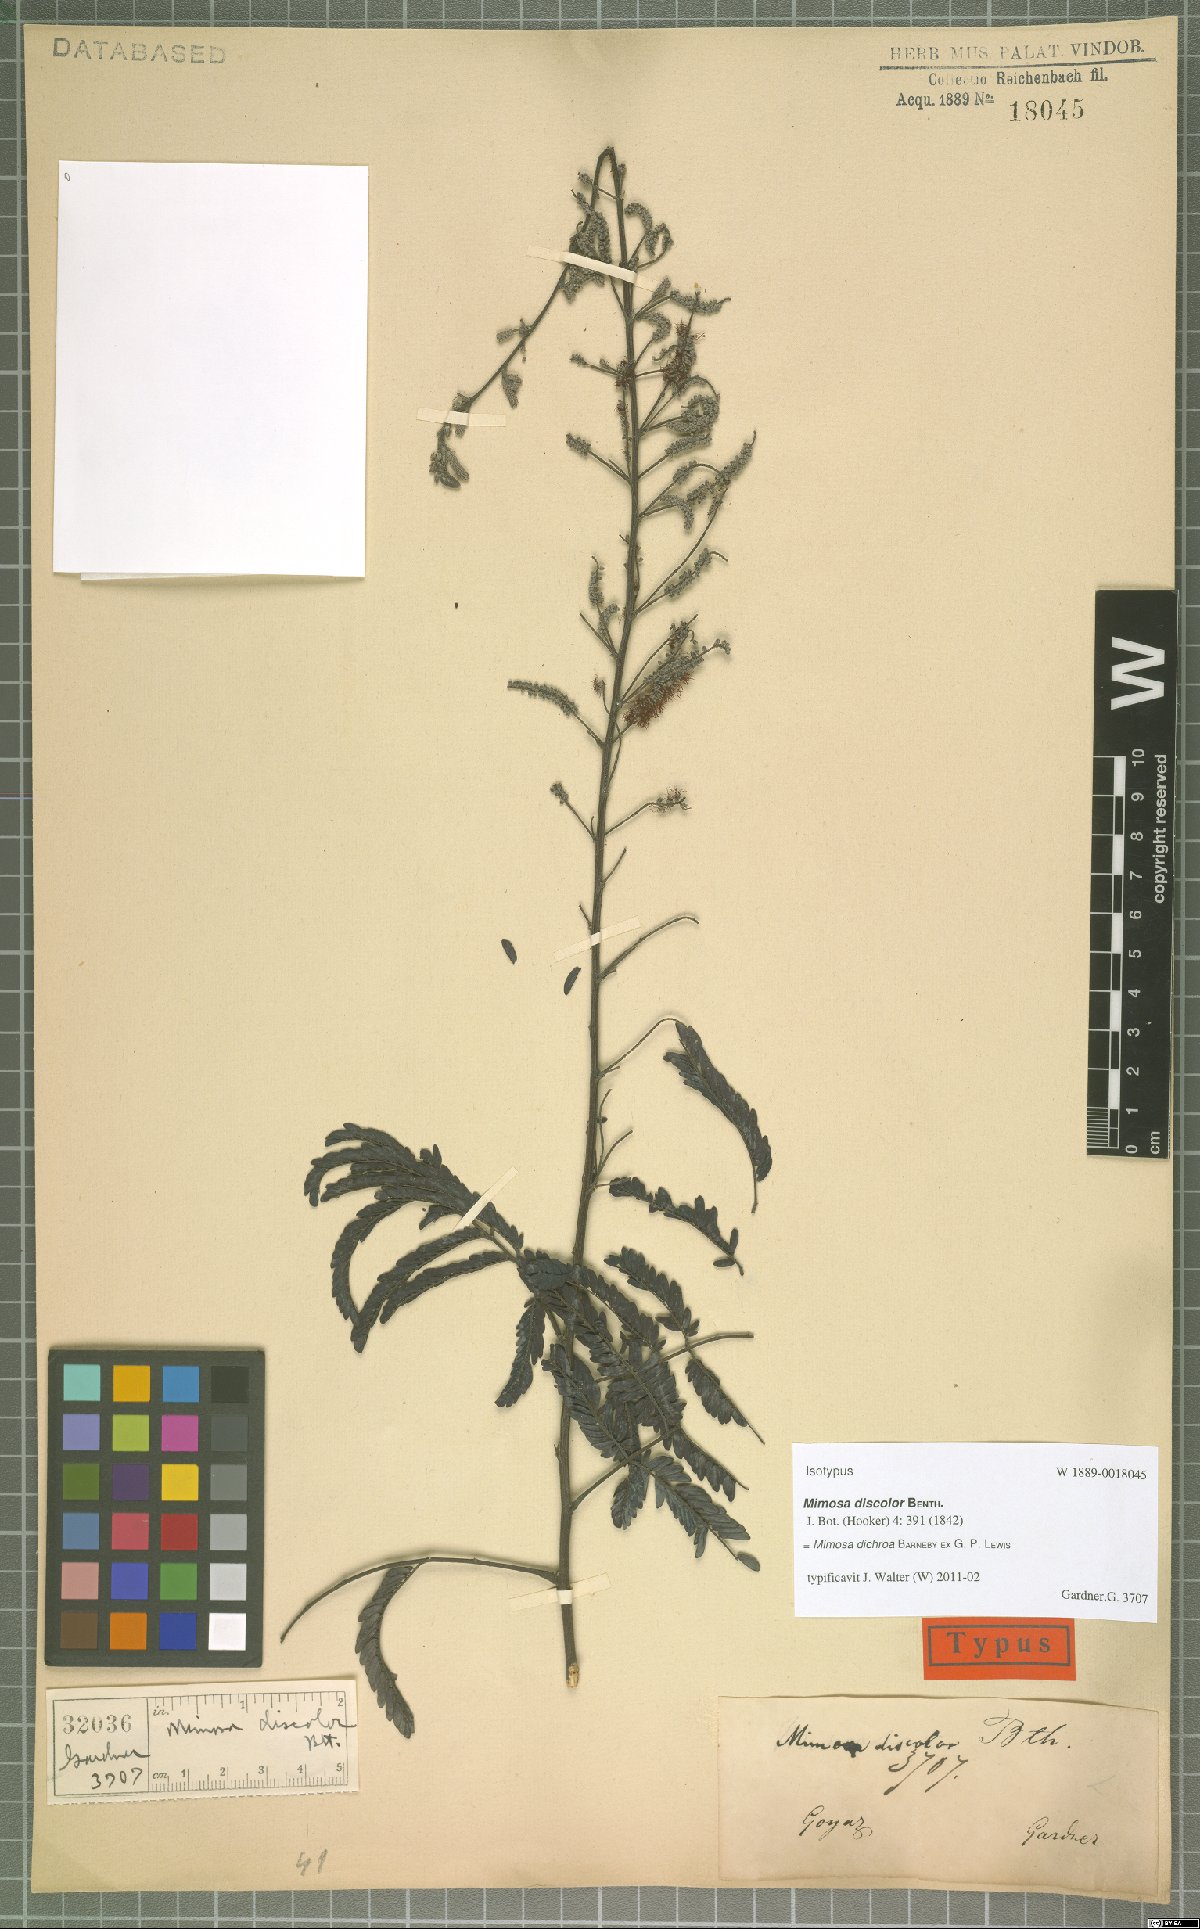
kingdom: Plantae
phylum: Tracheophyta
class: Magnoliopsida
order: Fabales
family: Fabaceae
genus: Mimosa
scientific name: Mimosa dichroa
